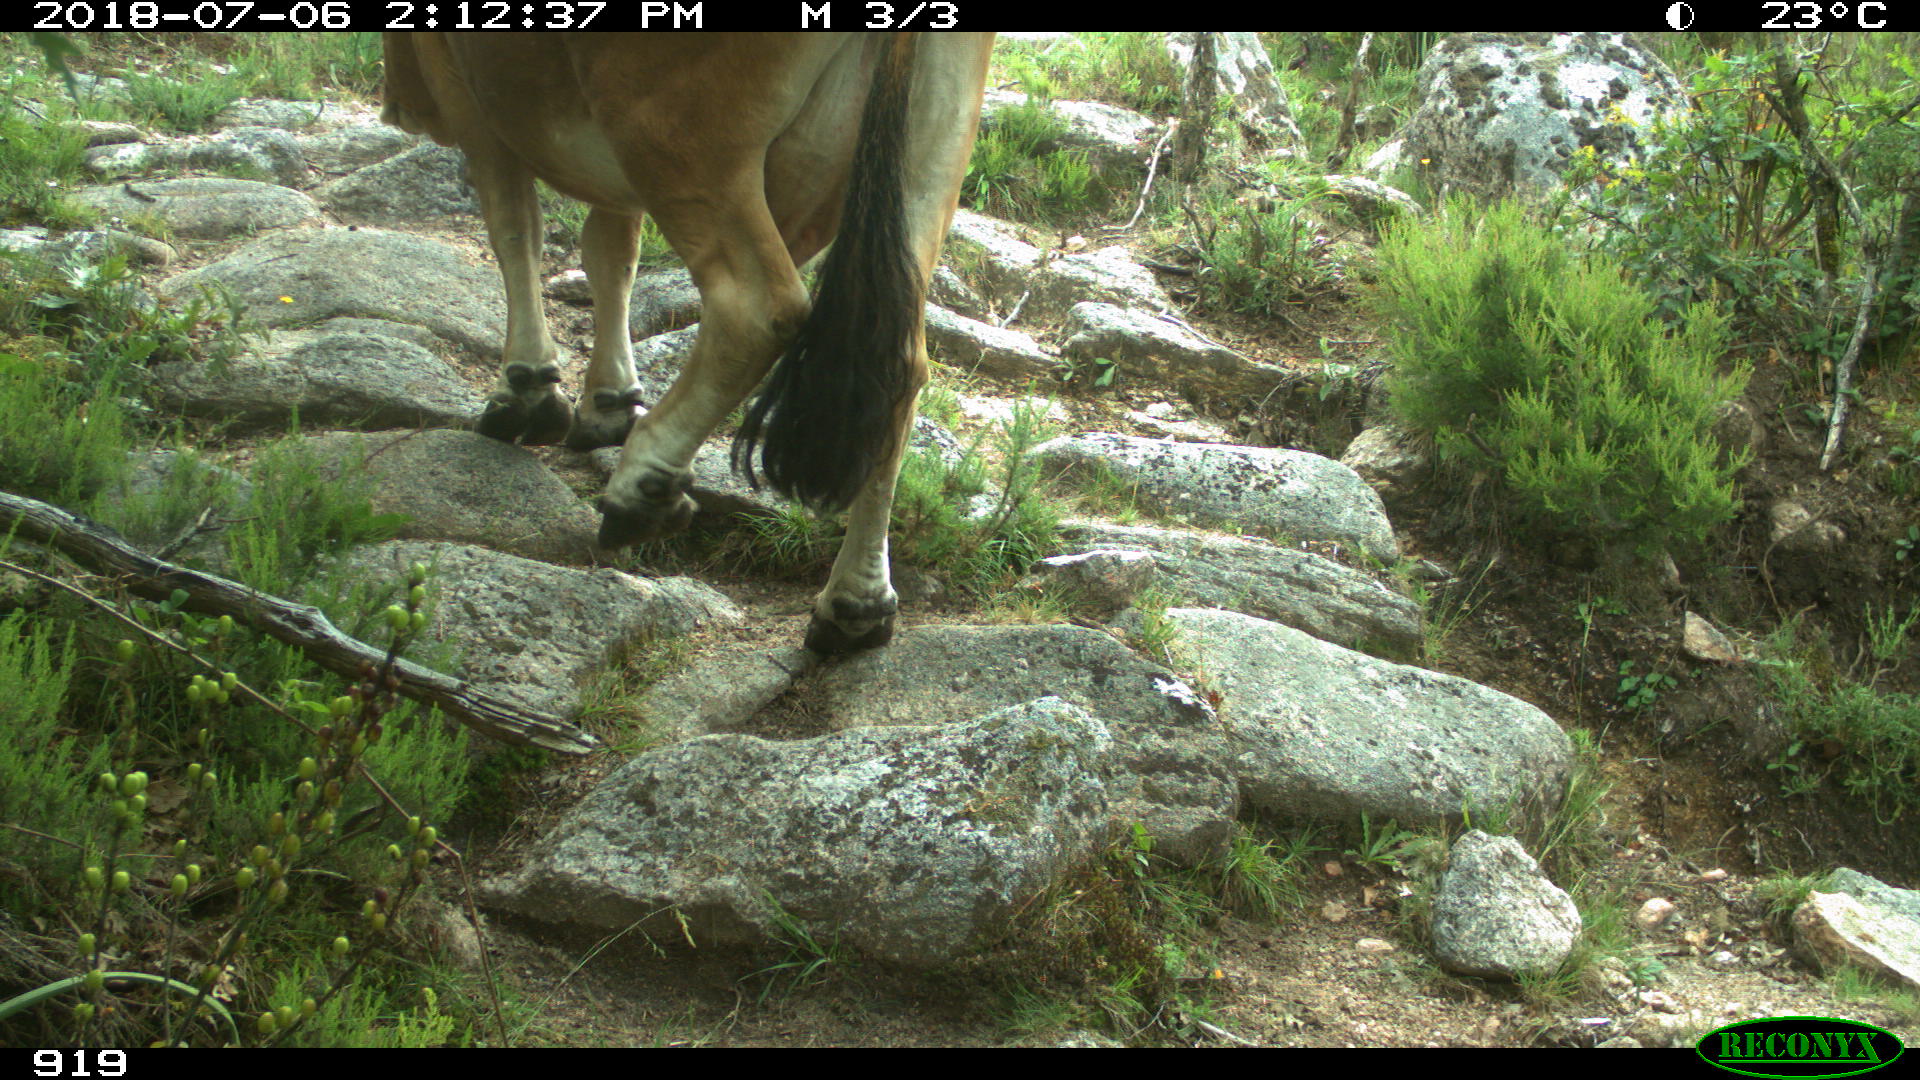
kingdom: Animalia
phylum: Chordata
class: Mammalia
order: Artiodactyla
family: Bovidae
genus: Bos
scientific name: Bos taurus
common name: Domesticated cattle
